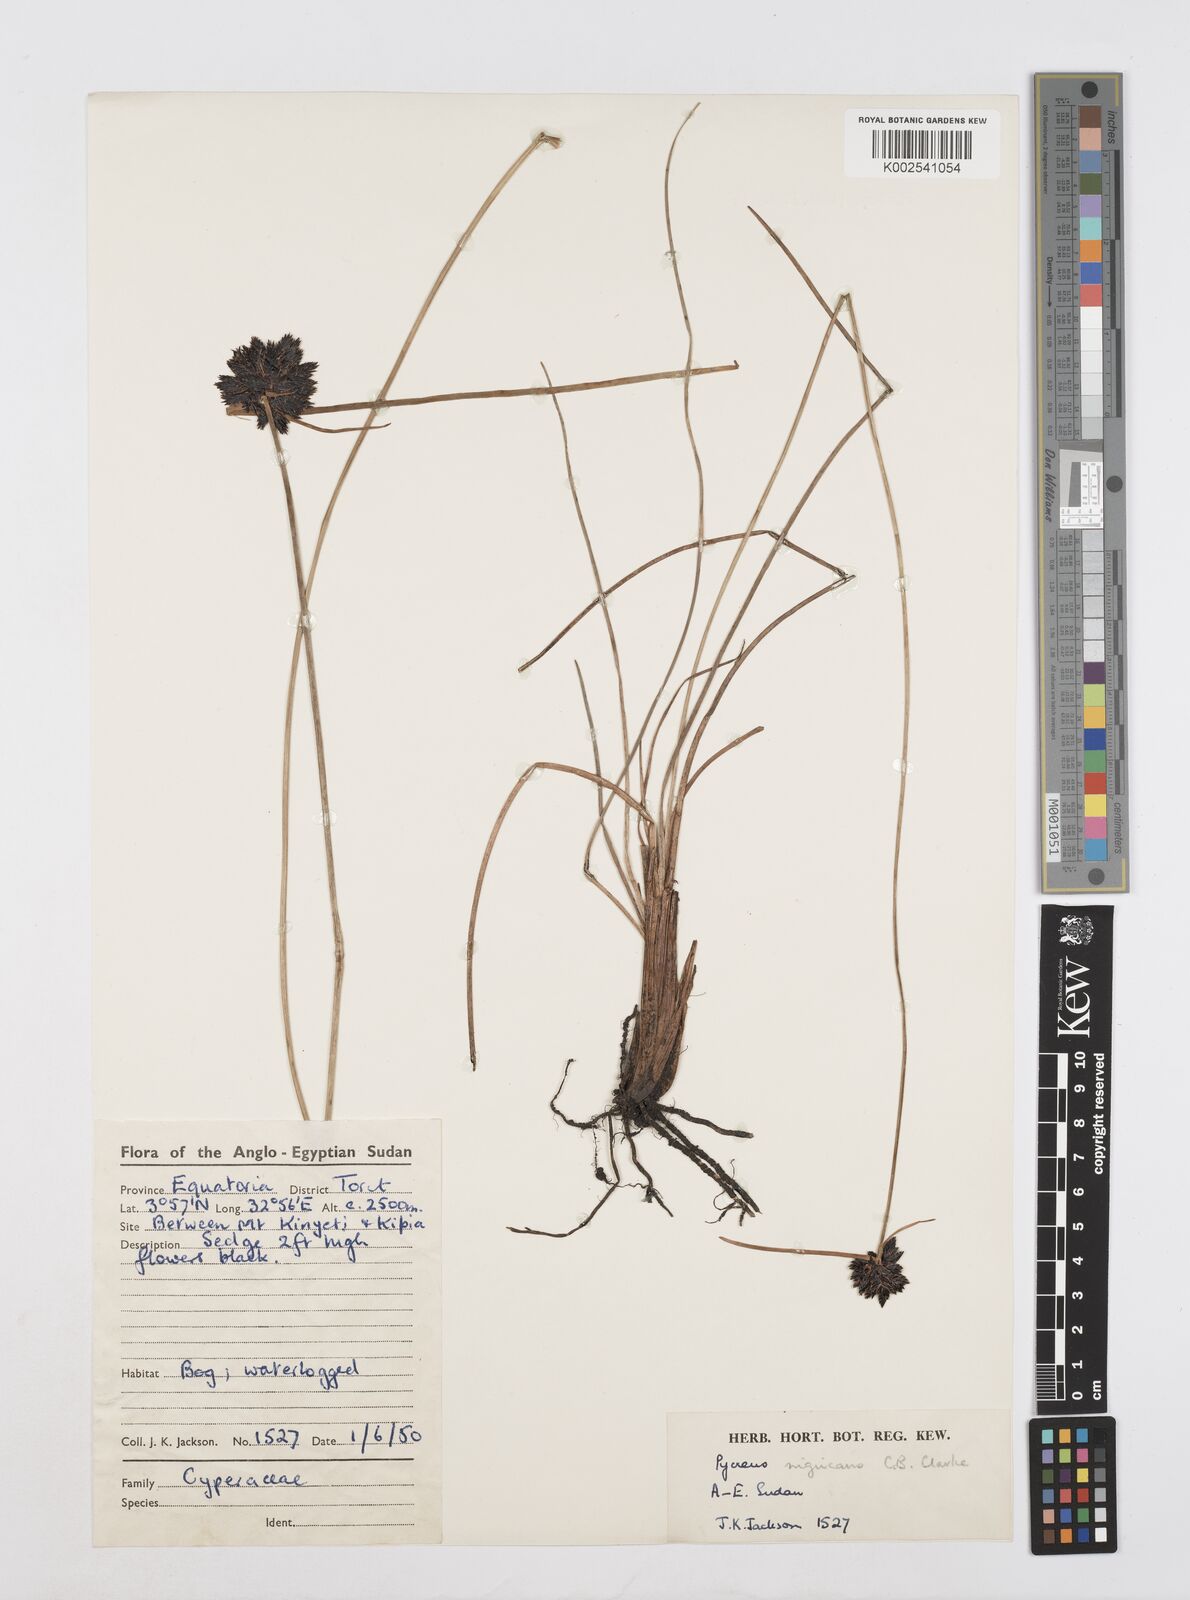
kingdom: Plantae
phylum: Tracheophyta
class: Liliopsida
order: Poales
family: Cyperaceae
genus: Cyperus
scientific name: Cyperus nigricans
